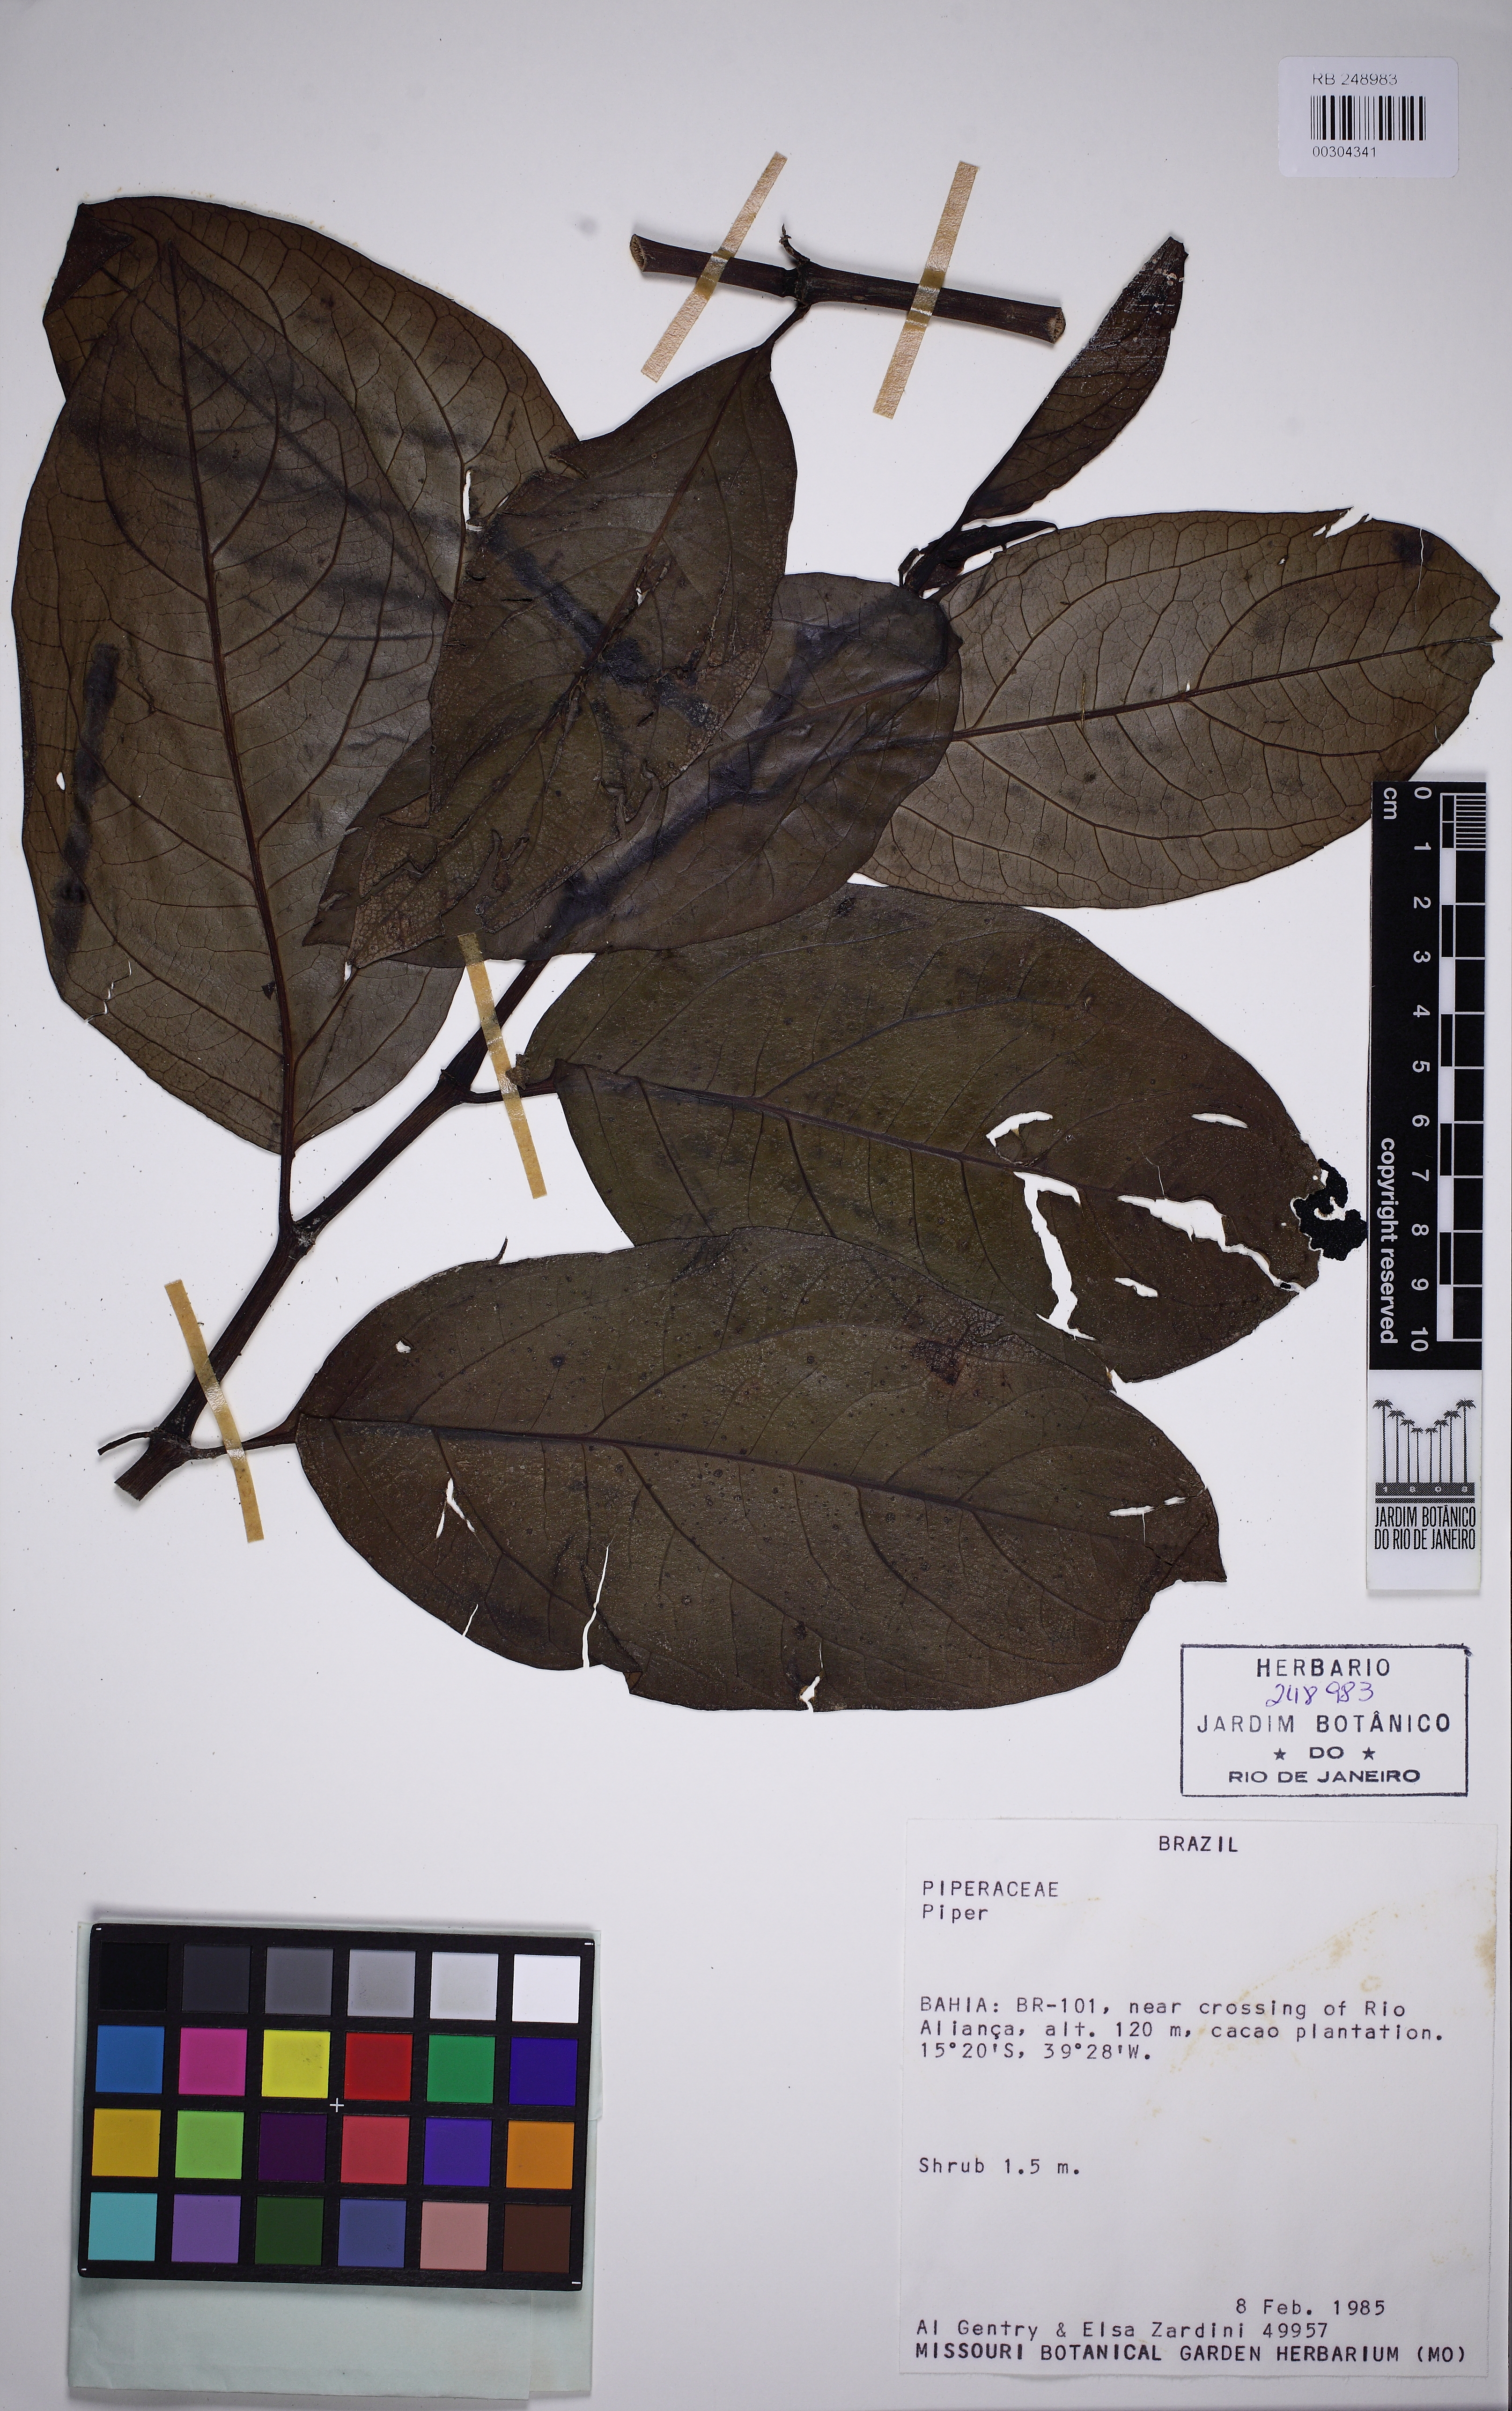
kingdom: Plantae
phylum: Tracheophyta
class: Magnoliopsida
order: Piperales
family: Piperaceae
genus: Peperomia
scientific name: Peperomia
